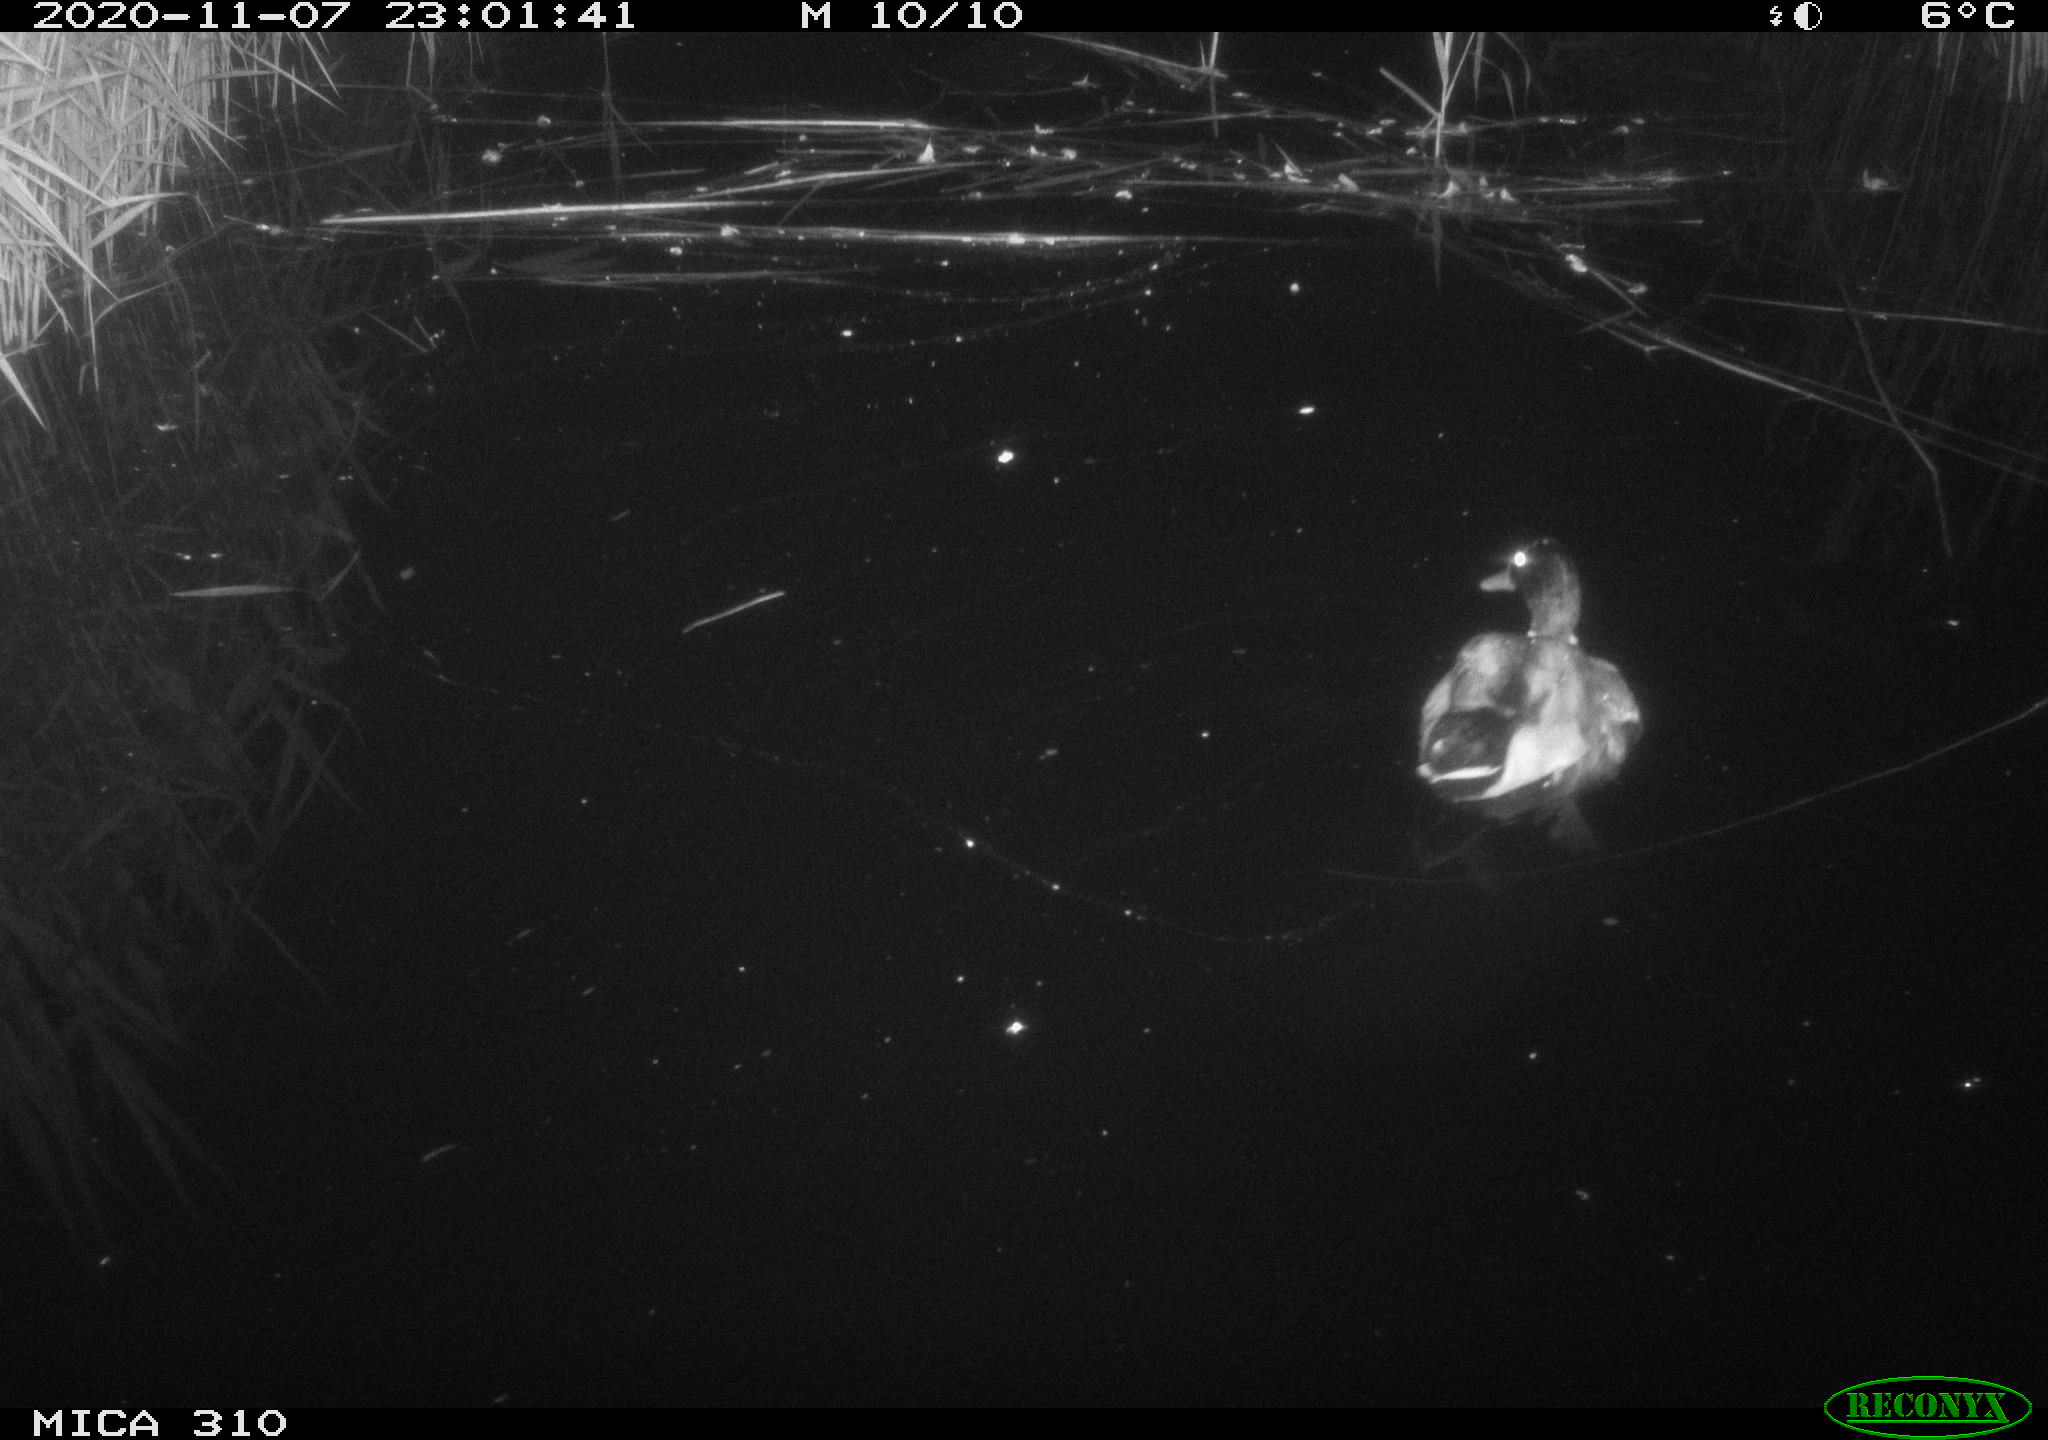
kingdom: Animalia
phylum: Chordata
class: Aves
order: Anseriformes
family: Anatidae
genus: Anas
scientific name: Anas platyrhynchos
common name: Mallard
